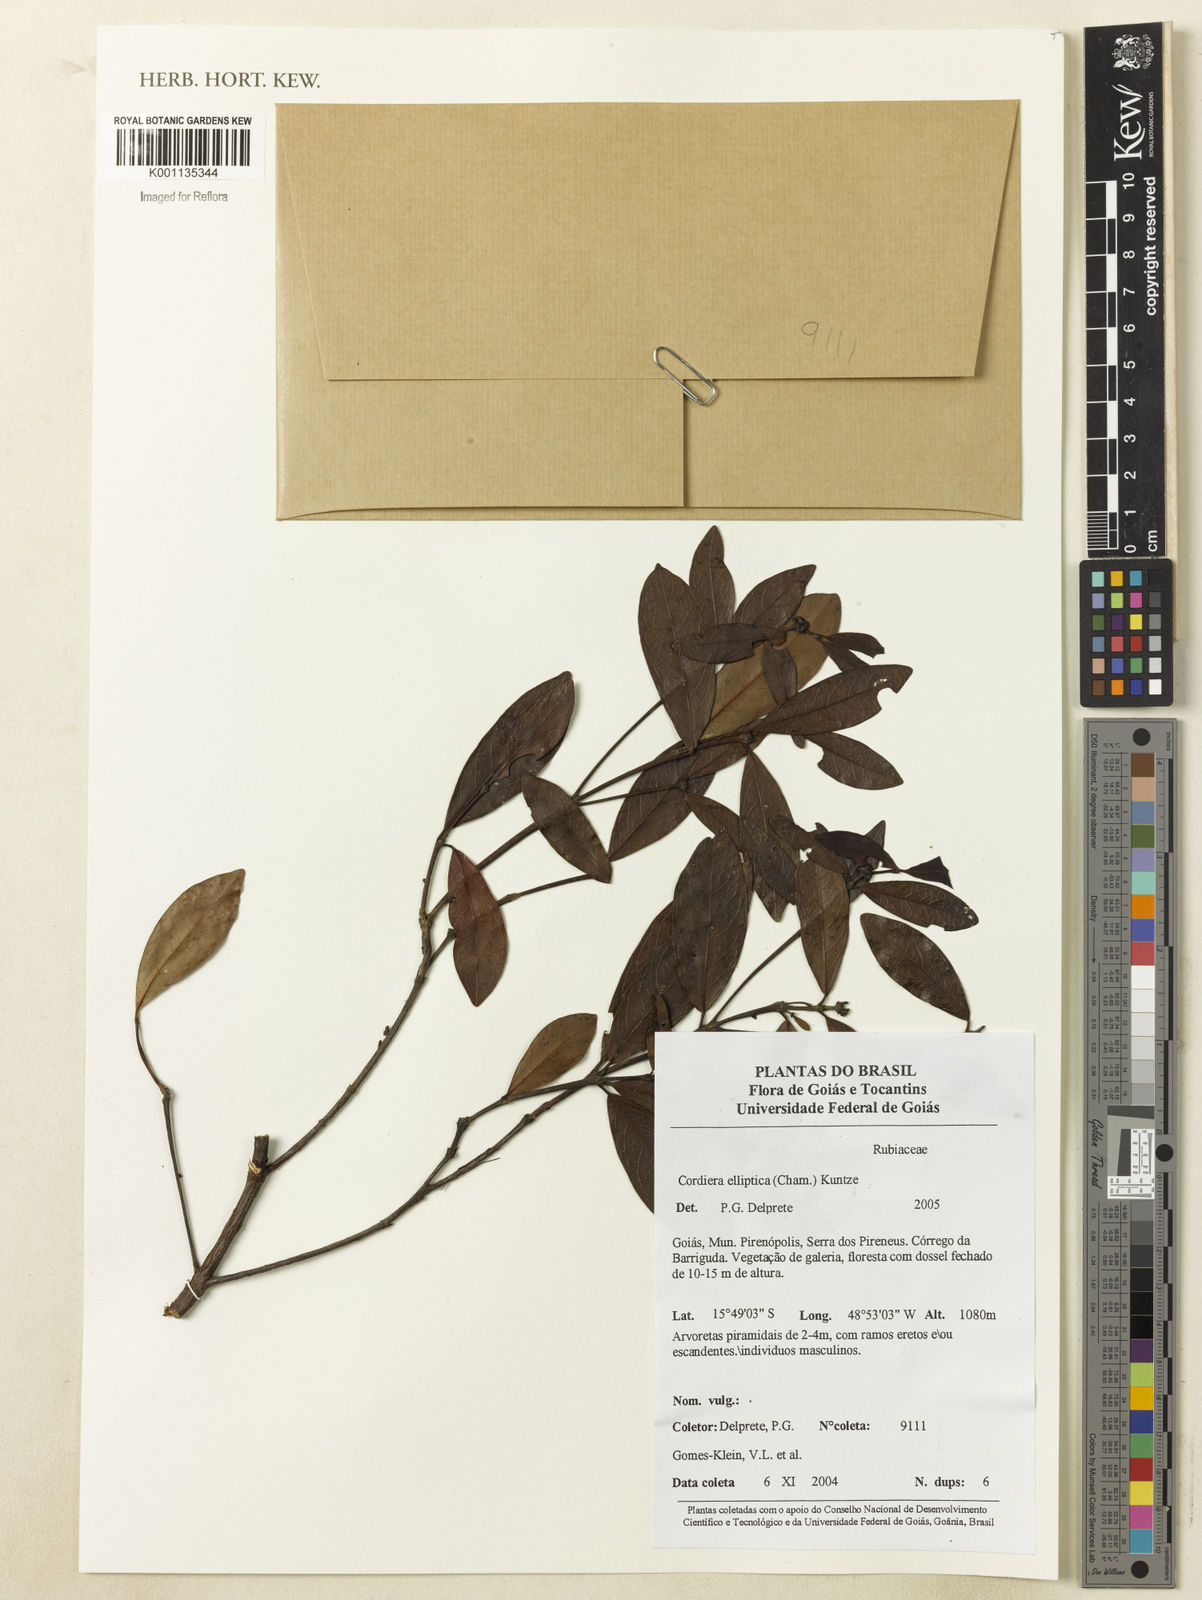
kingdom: Plantae
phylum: Tracheophyta
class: Magnoliopsida
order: Gentianales
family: Rubiaceae
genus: Cordiera
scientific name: Cordiera elliptica
